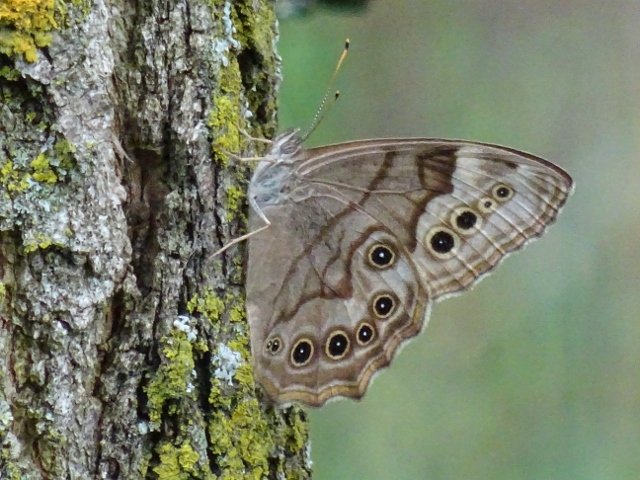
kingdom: Animalia
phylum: Arthropoda
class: Insecta
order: Lepidoptera
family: Nymphalidae
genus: Lethe
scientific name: Lethe anthedon
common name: Northern Pearly-Eye
